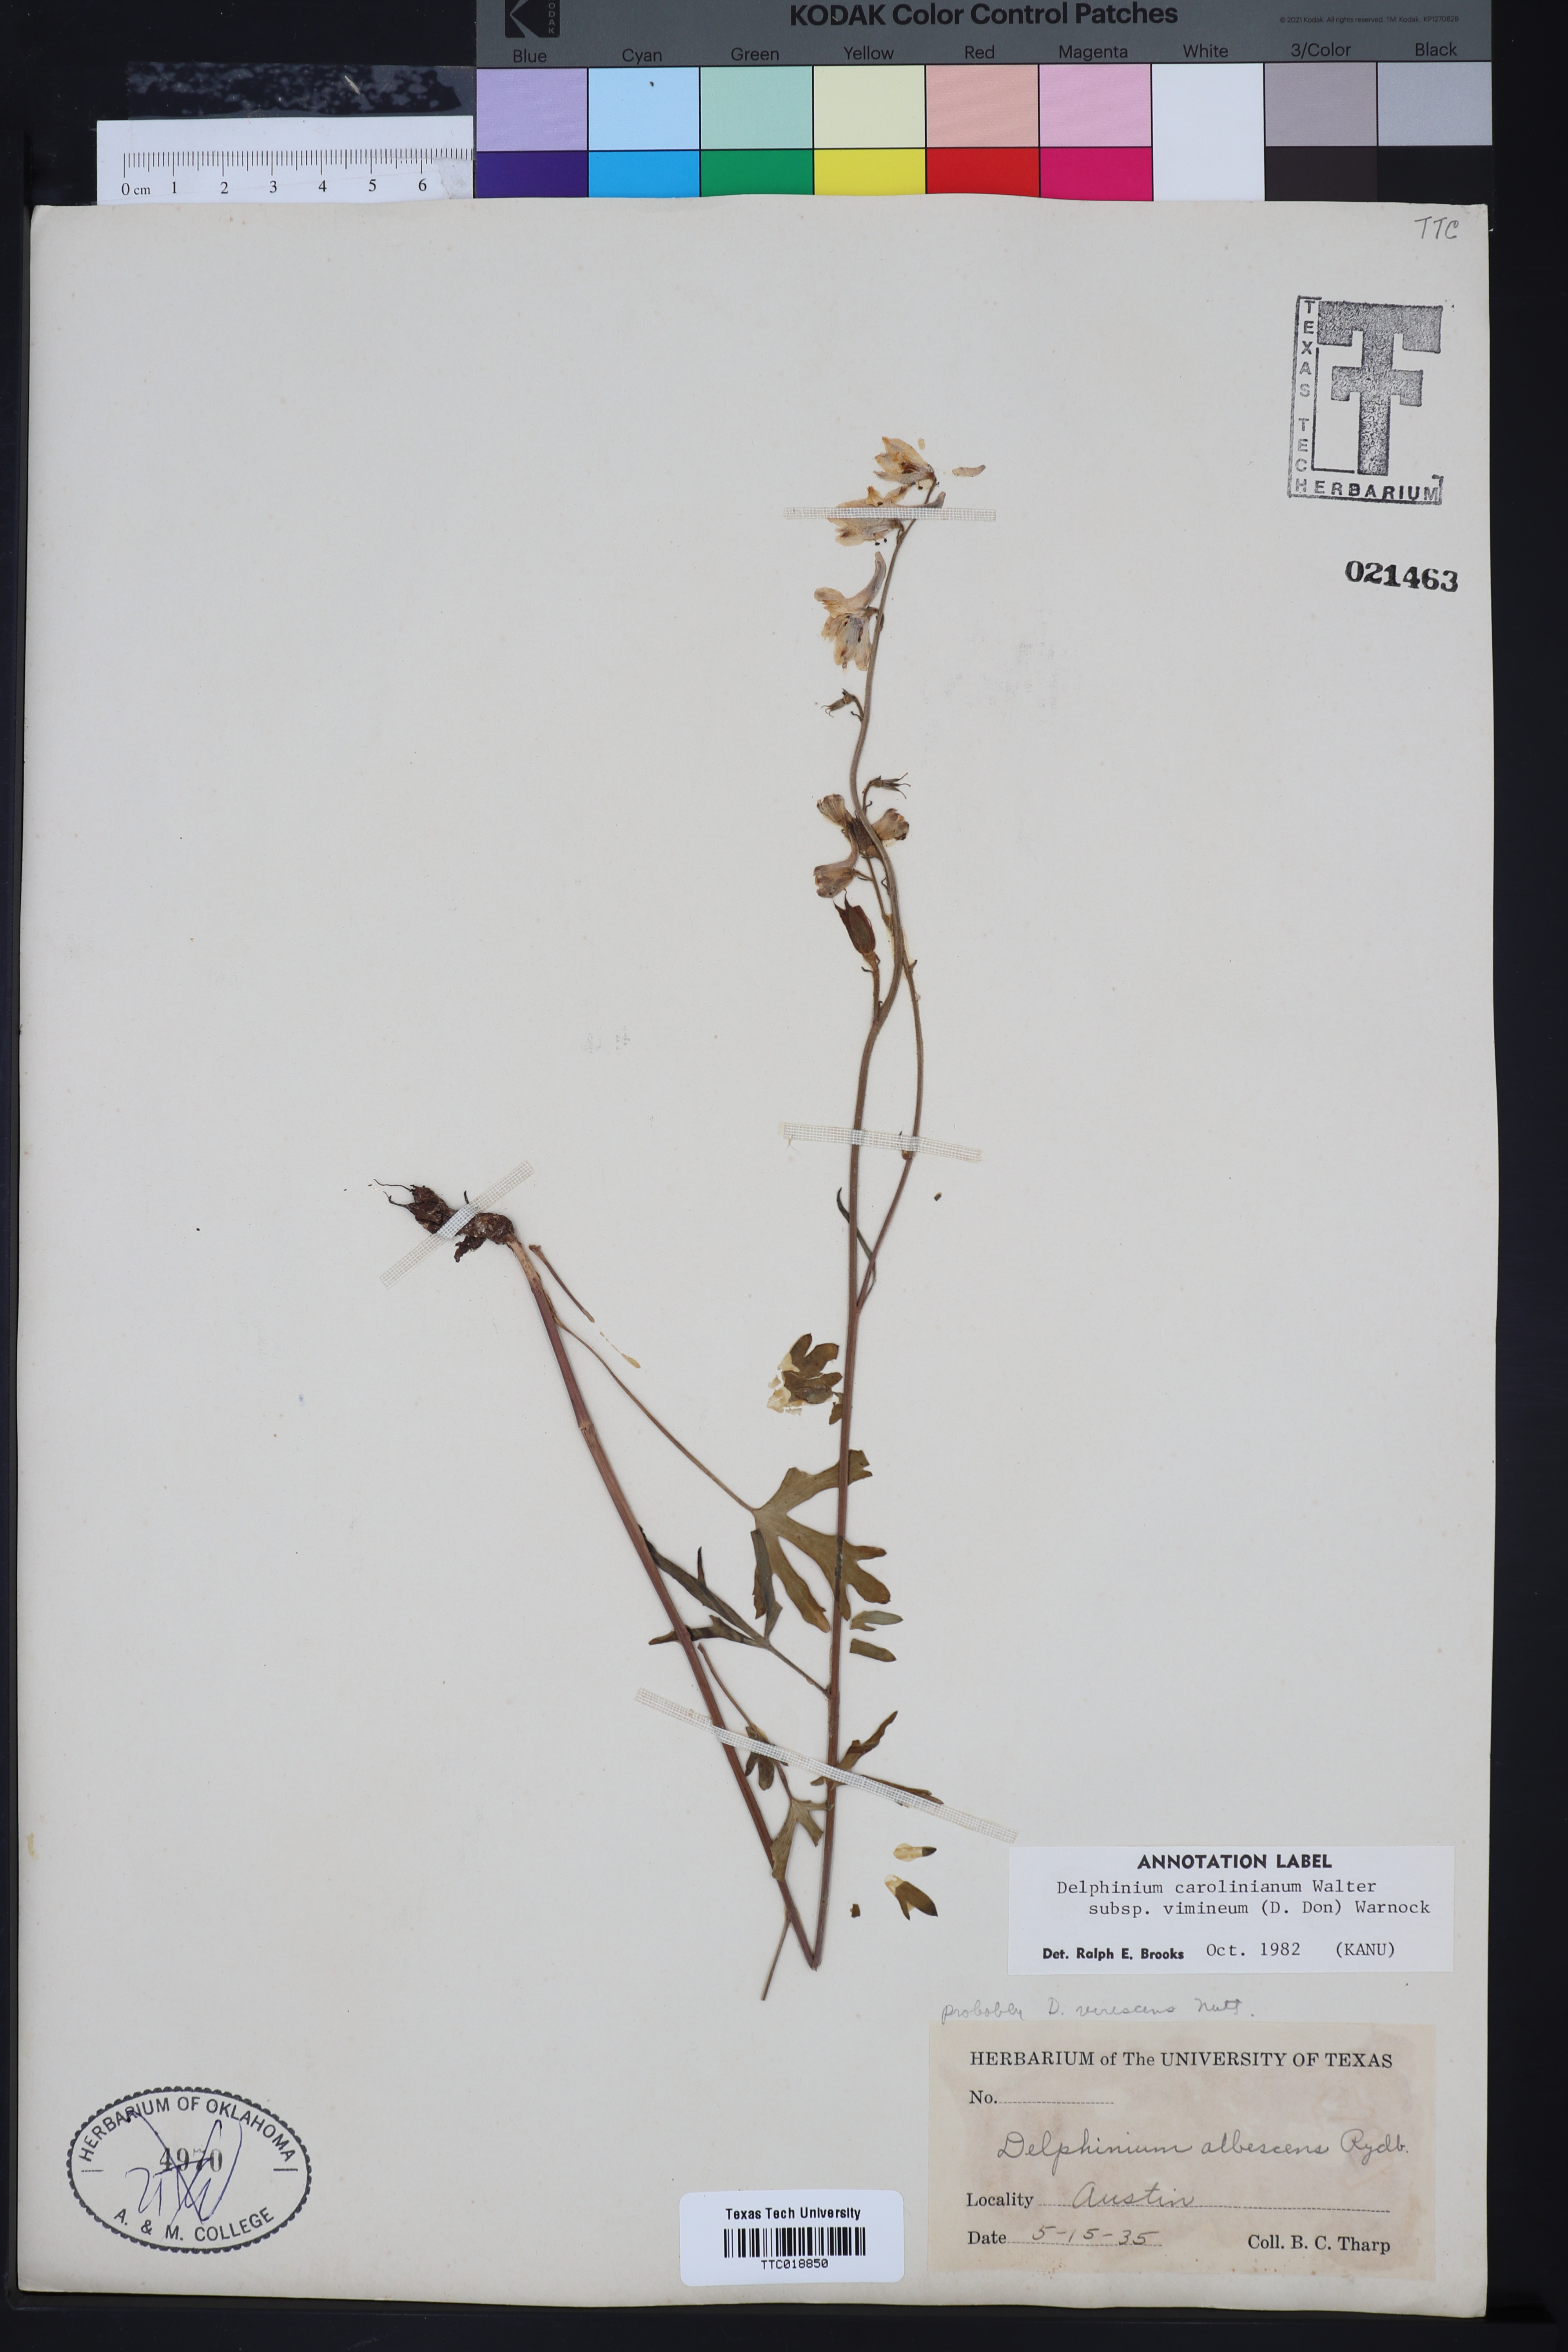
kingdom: Plantae
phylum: Tracheophyta
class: Magnoliopsida
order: Ranunculales
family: Ranunculaceae
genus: Delphinium
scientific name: Delphinium carolinianum
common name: Carolina larkspur
